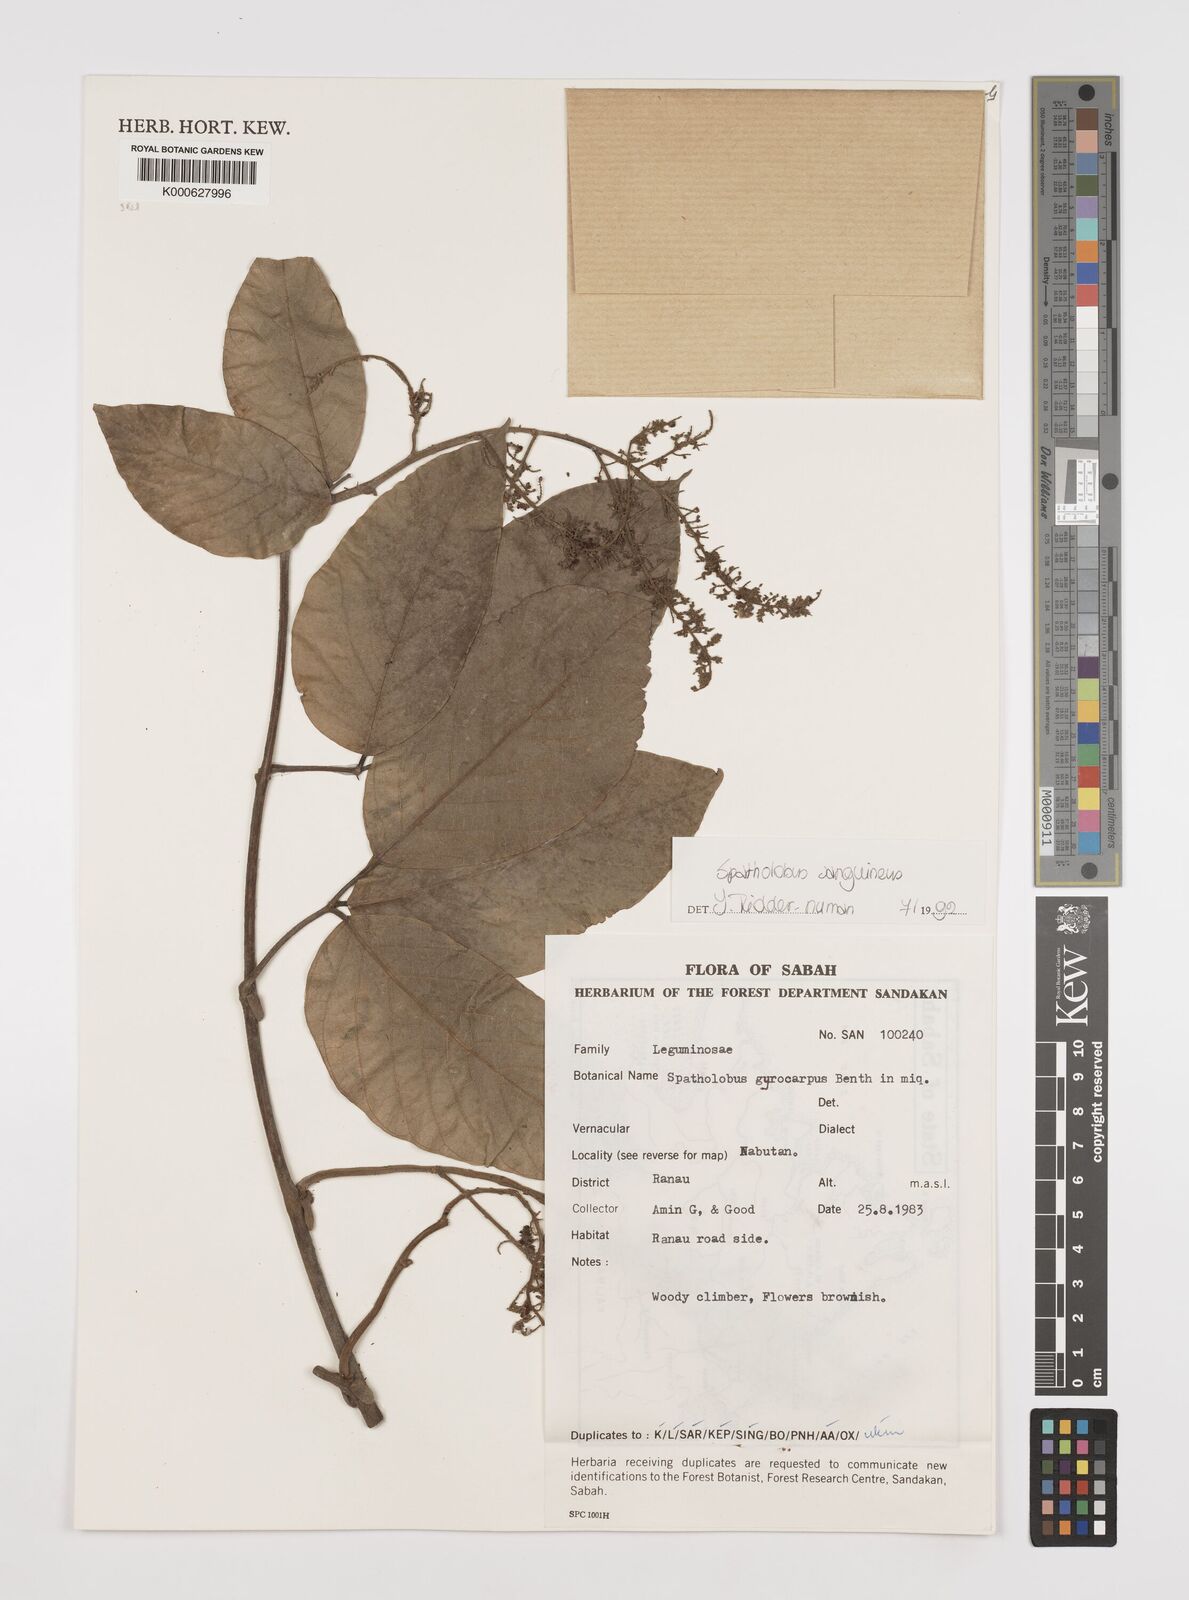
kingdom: Plantae
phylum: Tracheophyta
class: Magnoliopsida
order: Fabales
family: Fabaceae
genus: Spatholobus
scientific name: Spatholobus
